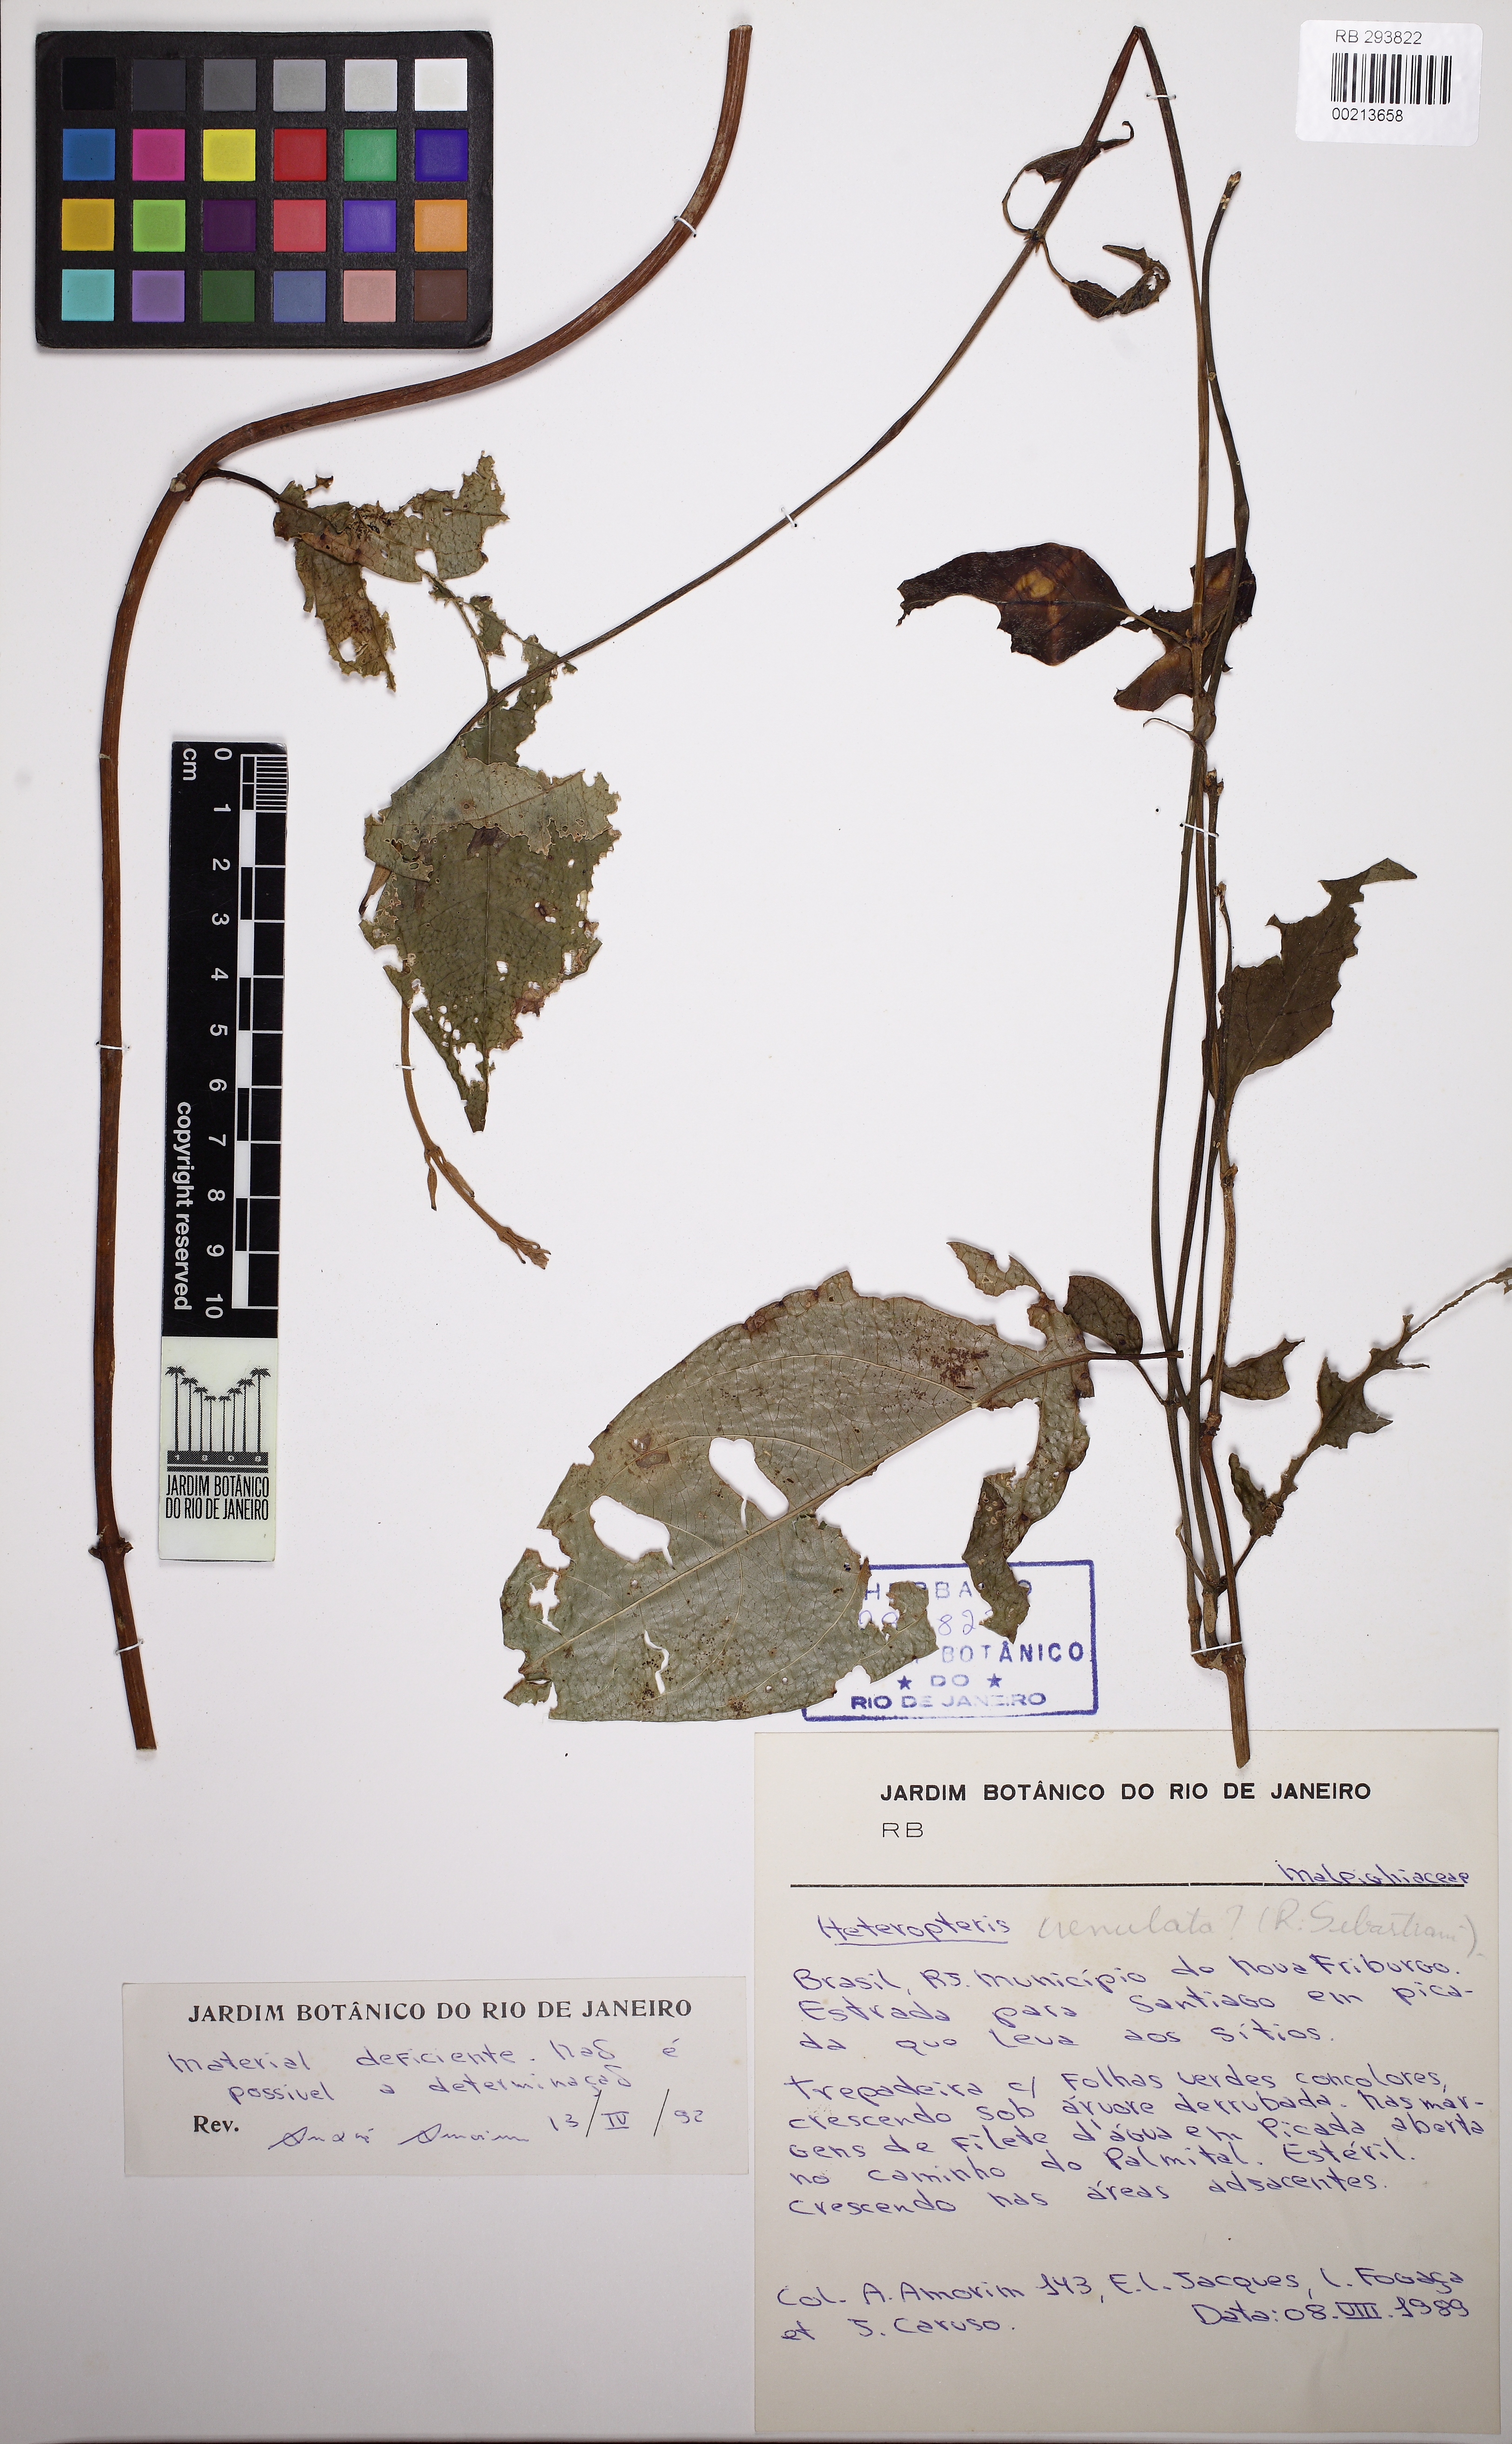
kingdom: Plantae
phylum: Tracheophyta
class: Magnoliopsida
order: Malpighiales
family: Malpighiaceae
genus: Heteropterys
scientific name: Heteropterys
